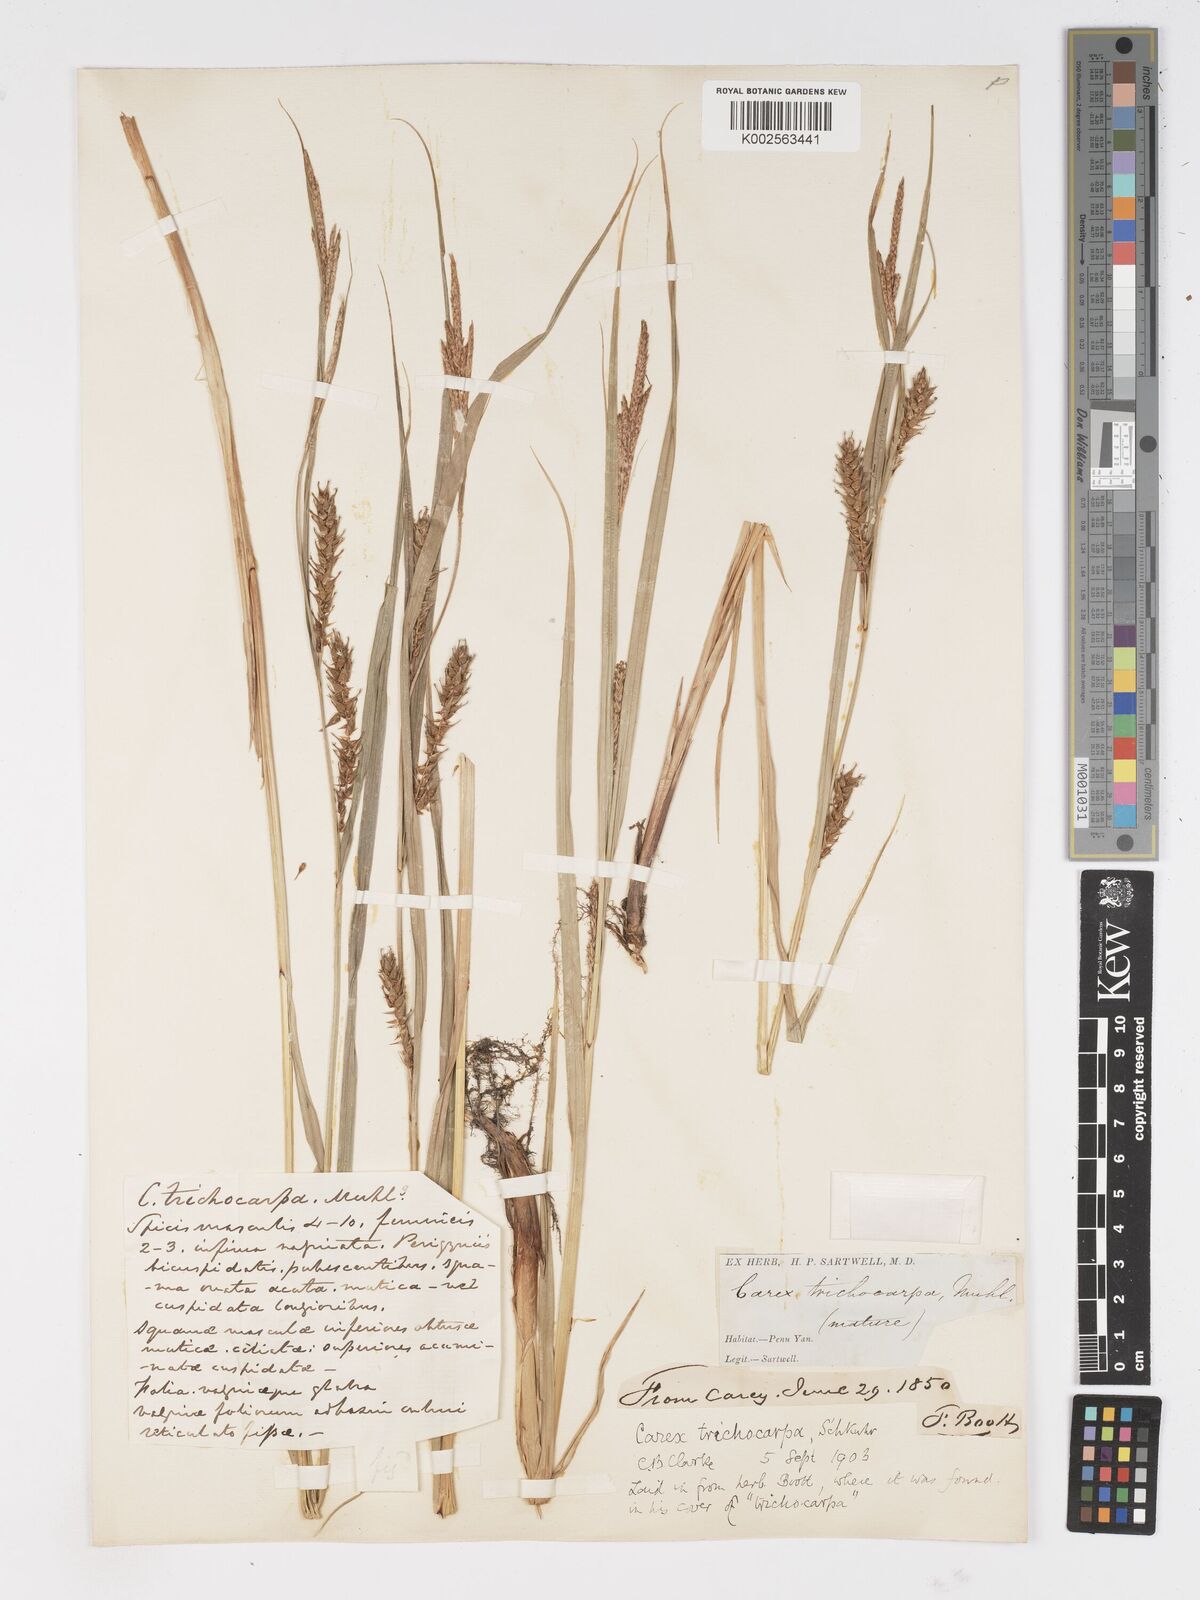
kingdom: Plantae
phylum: Tracheophyta
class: Liliopsida
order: Poales
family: Cyperaceae
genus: Carex
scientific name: Carex trichocarpa
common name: Hairy-fruited lake sedge
